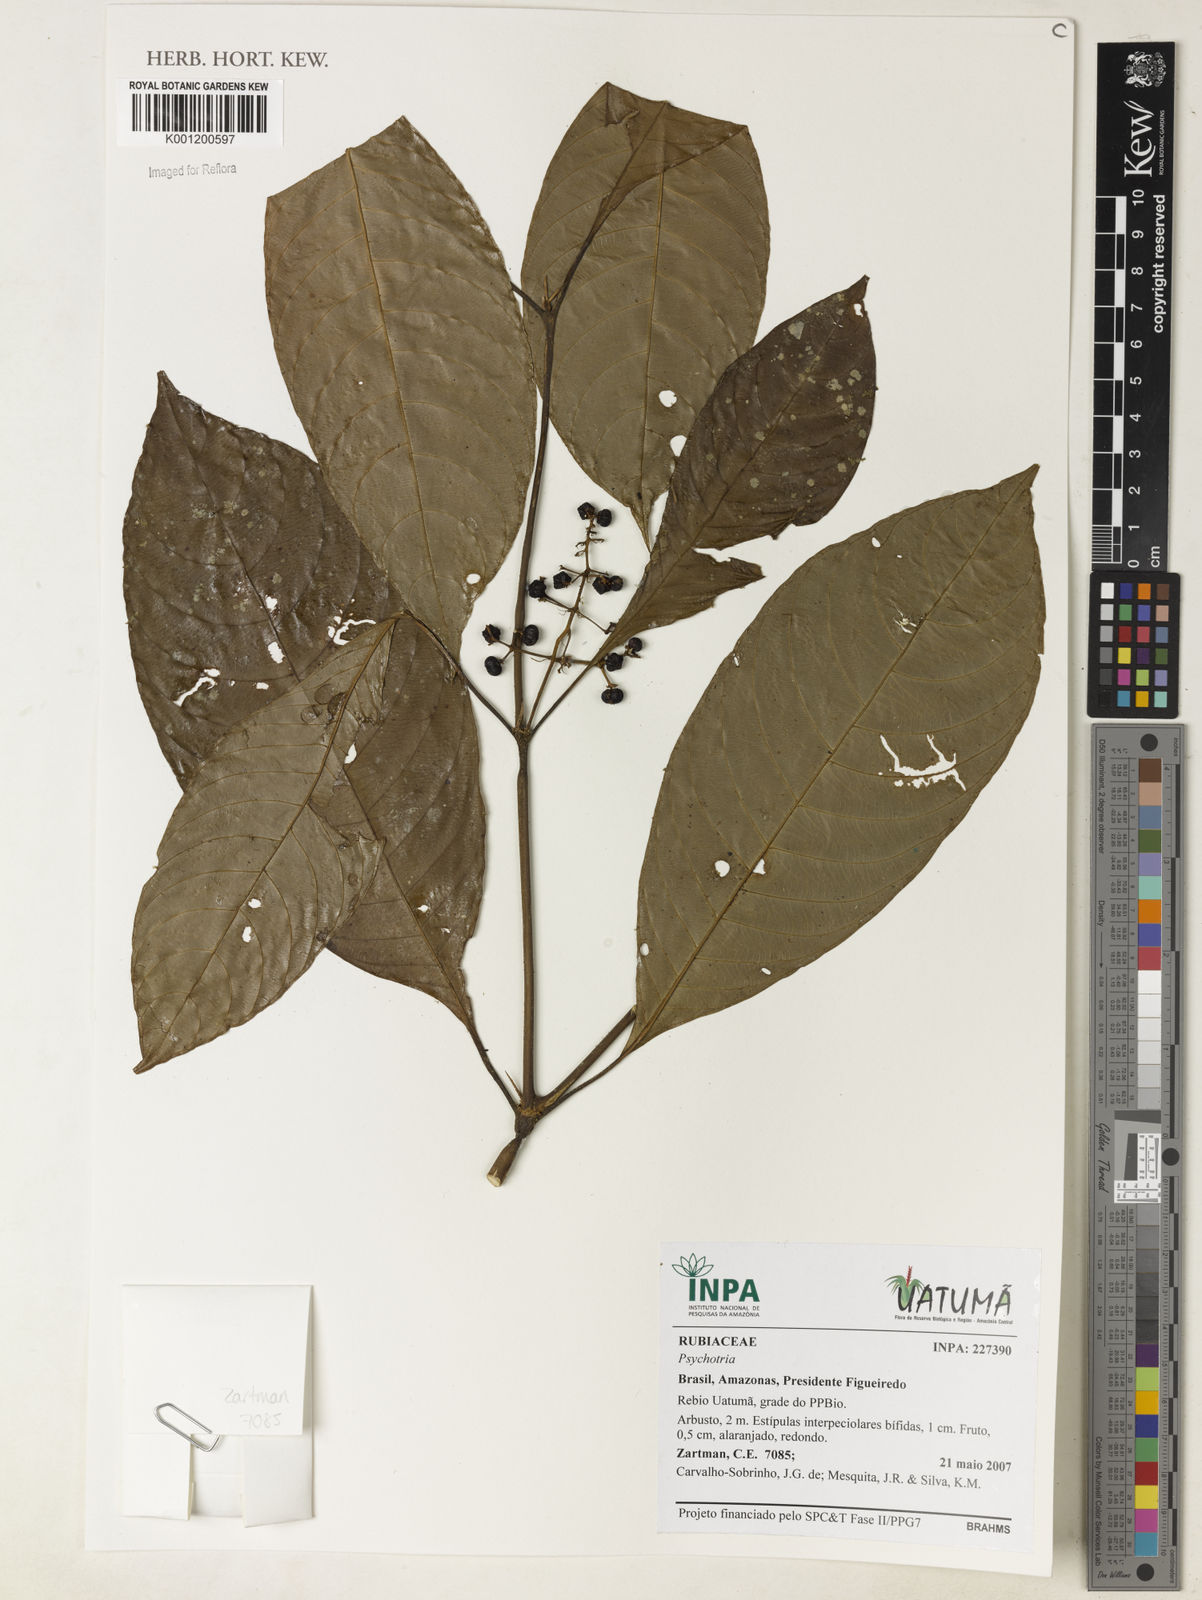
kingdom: Plantae
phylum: Tracheophyta
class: Magnoliopsida
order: Gentianales
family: Rubiaceae
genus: Psychotria
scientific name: Psychotria
